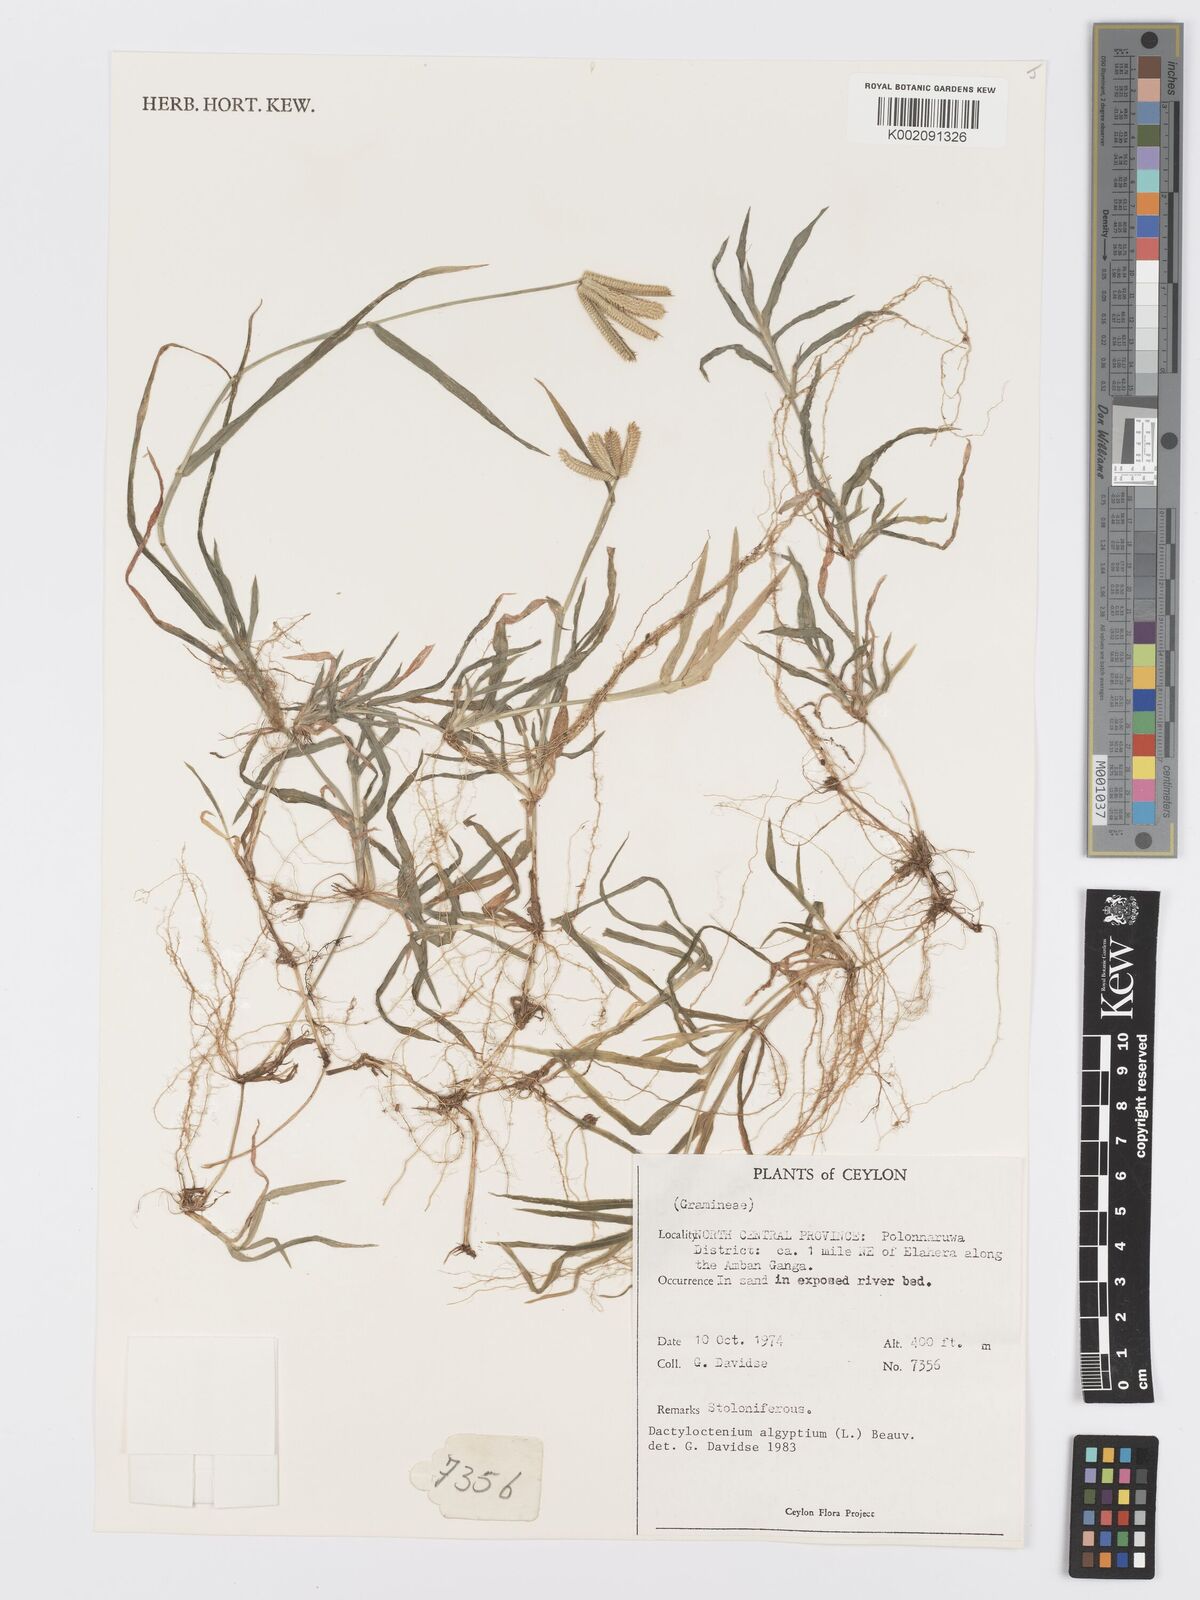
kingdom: Plantae
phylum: Tracheophyta
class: Liliopsida
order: Poales
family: Poaceae
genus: Dactyloctenium
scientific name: Dactyloctenium aegyptium
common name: Egyptian grass
